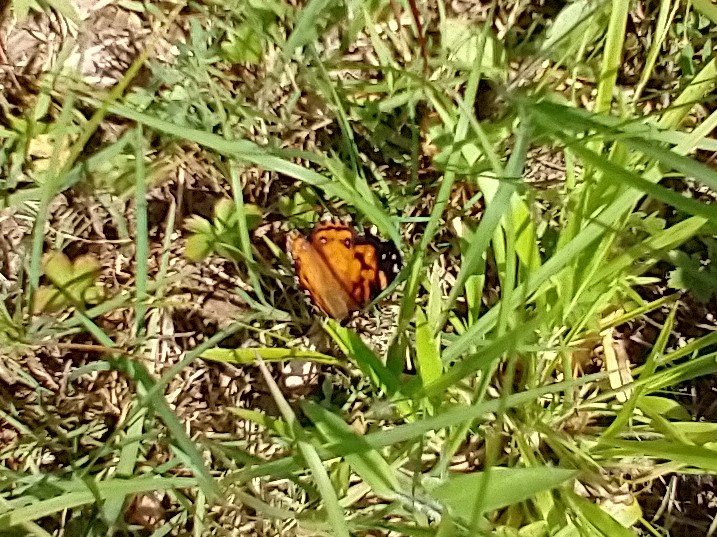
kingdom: Animalia
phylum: Arthropoda
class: Insecta
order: Lepidoptera
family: Nymphalidae
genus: Vanessa
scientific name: Vanessa virginiensis
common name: American Lady
